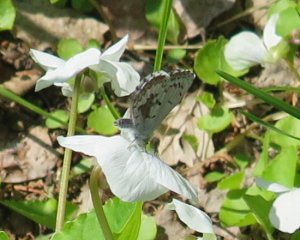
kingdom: Animalia
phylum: Arthropoda
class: Insecta
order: Lepidoptera
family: Lycaenidae
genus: Celastrina
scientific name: Celastrina lucia
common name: Northern Spring Azure
